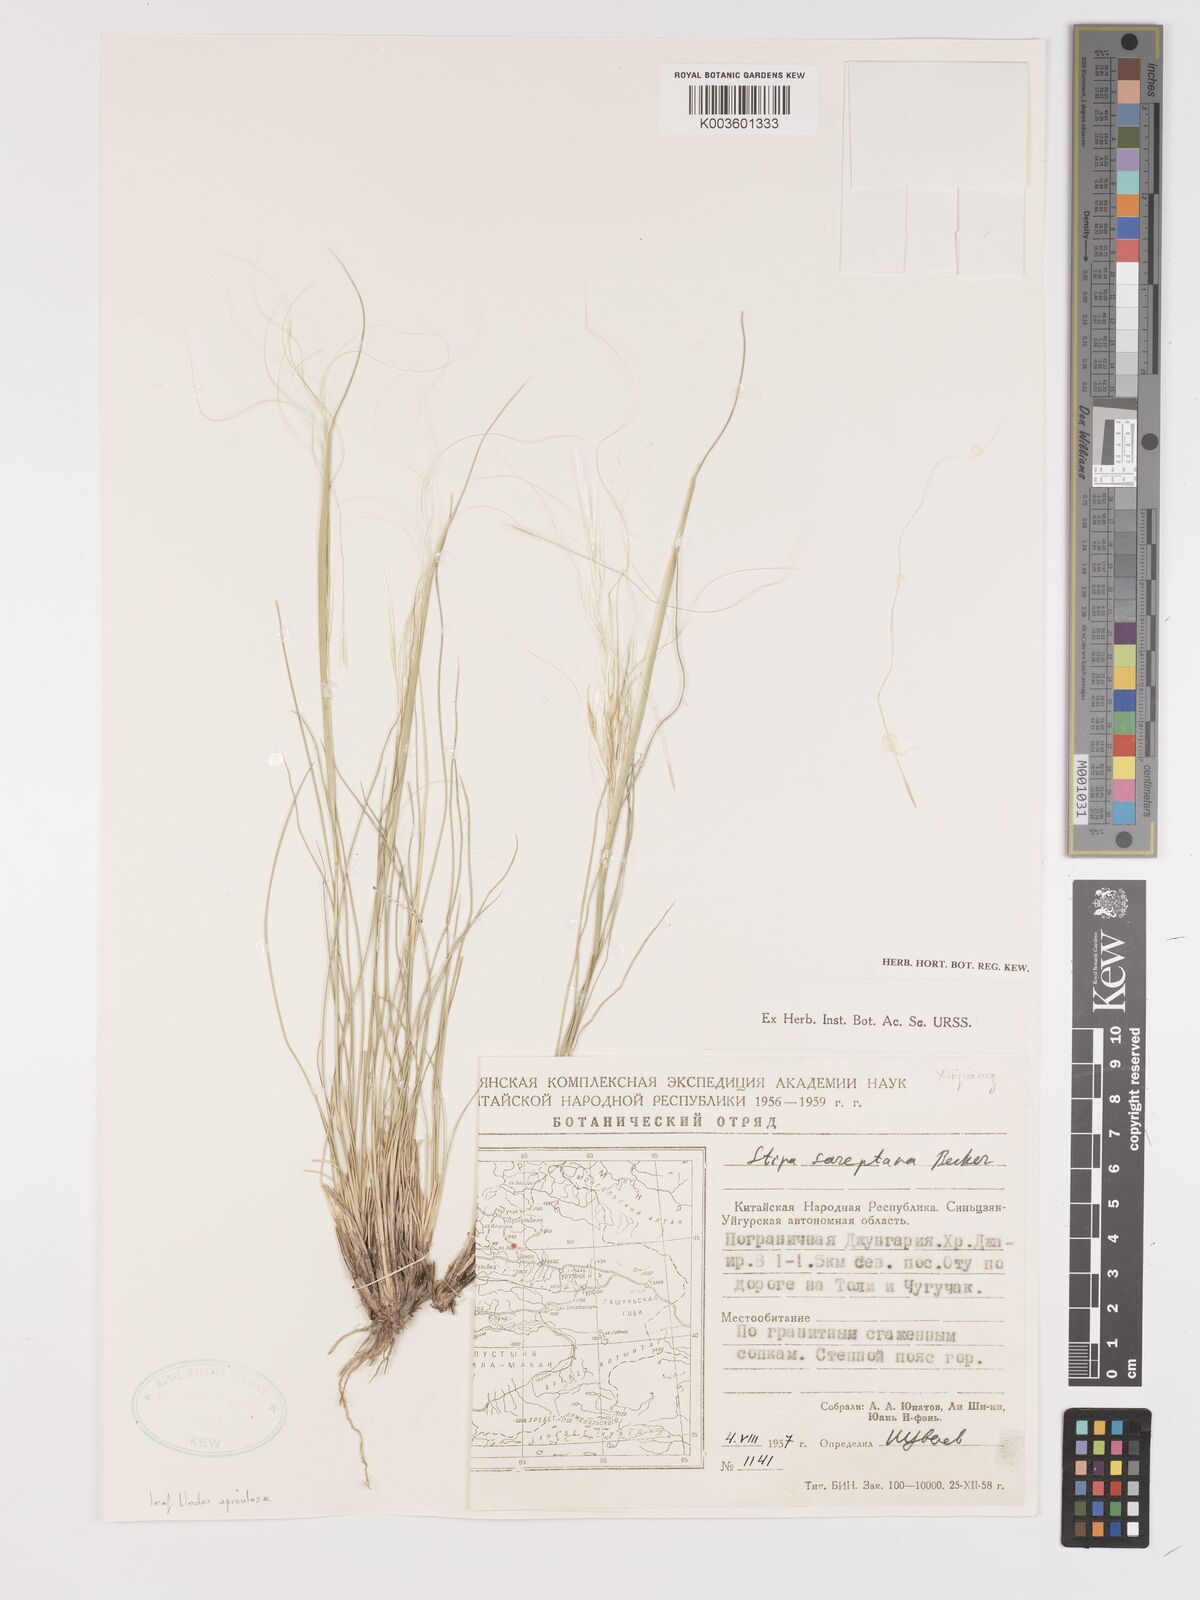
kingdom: Plantae
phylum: Tracheophyta
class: Liliopsida
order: Poales
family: Poaceae
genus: Stipa
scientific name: Stipa sareptana
